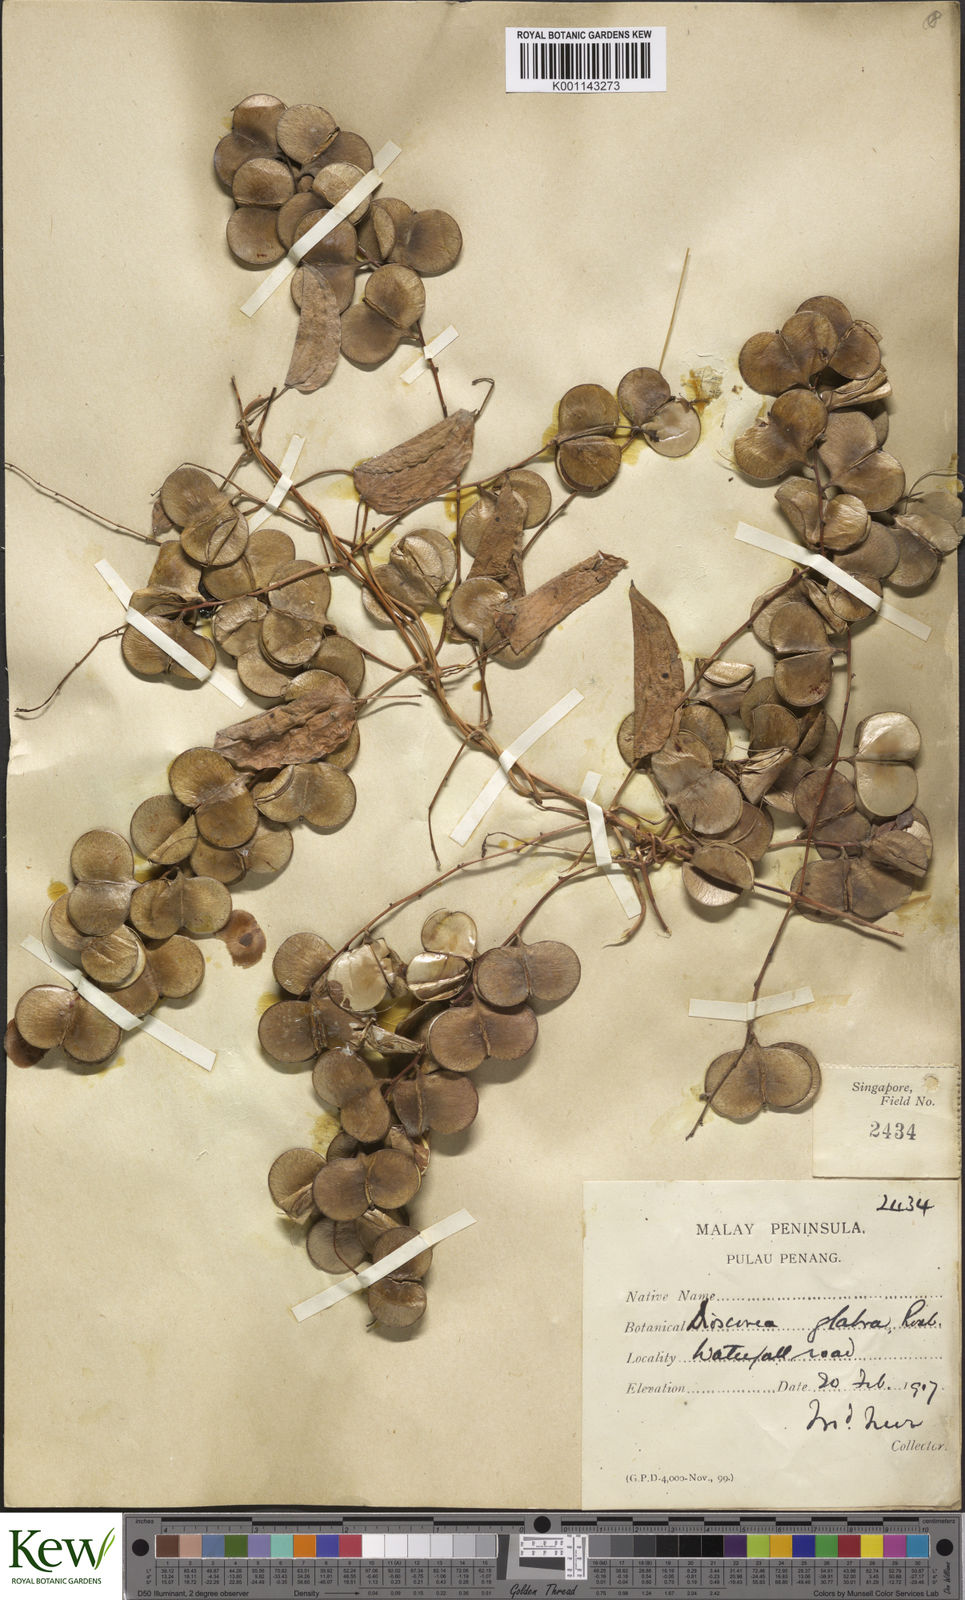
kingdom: Plantae
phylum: Tracheophyta
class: Liliopsida
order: Dioscoreales
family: Dioscoreaceae
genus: Dioscorea
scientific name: Dioscorea glabra
